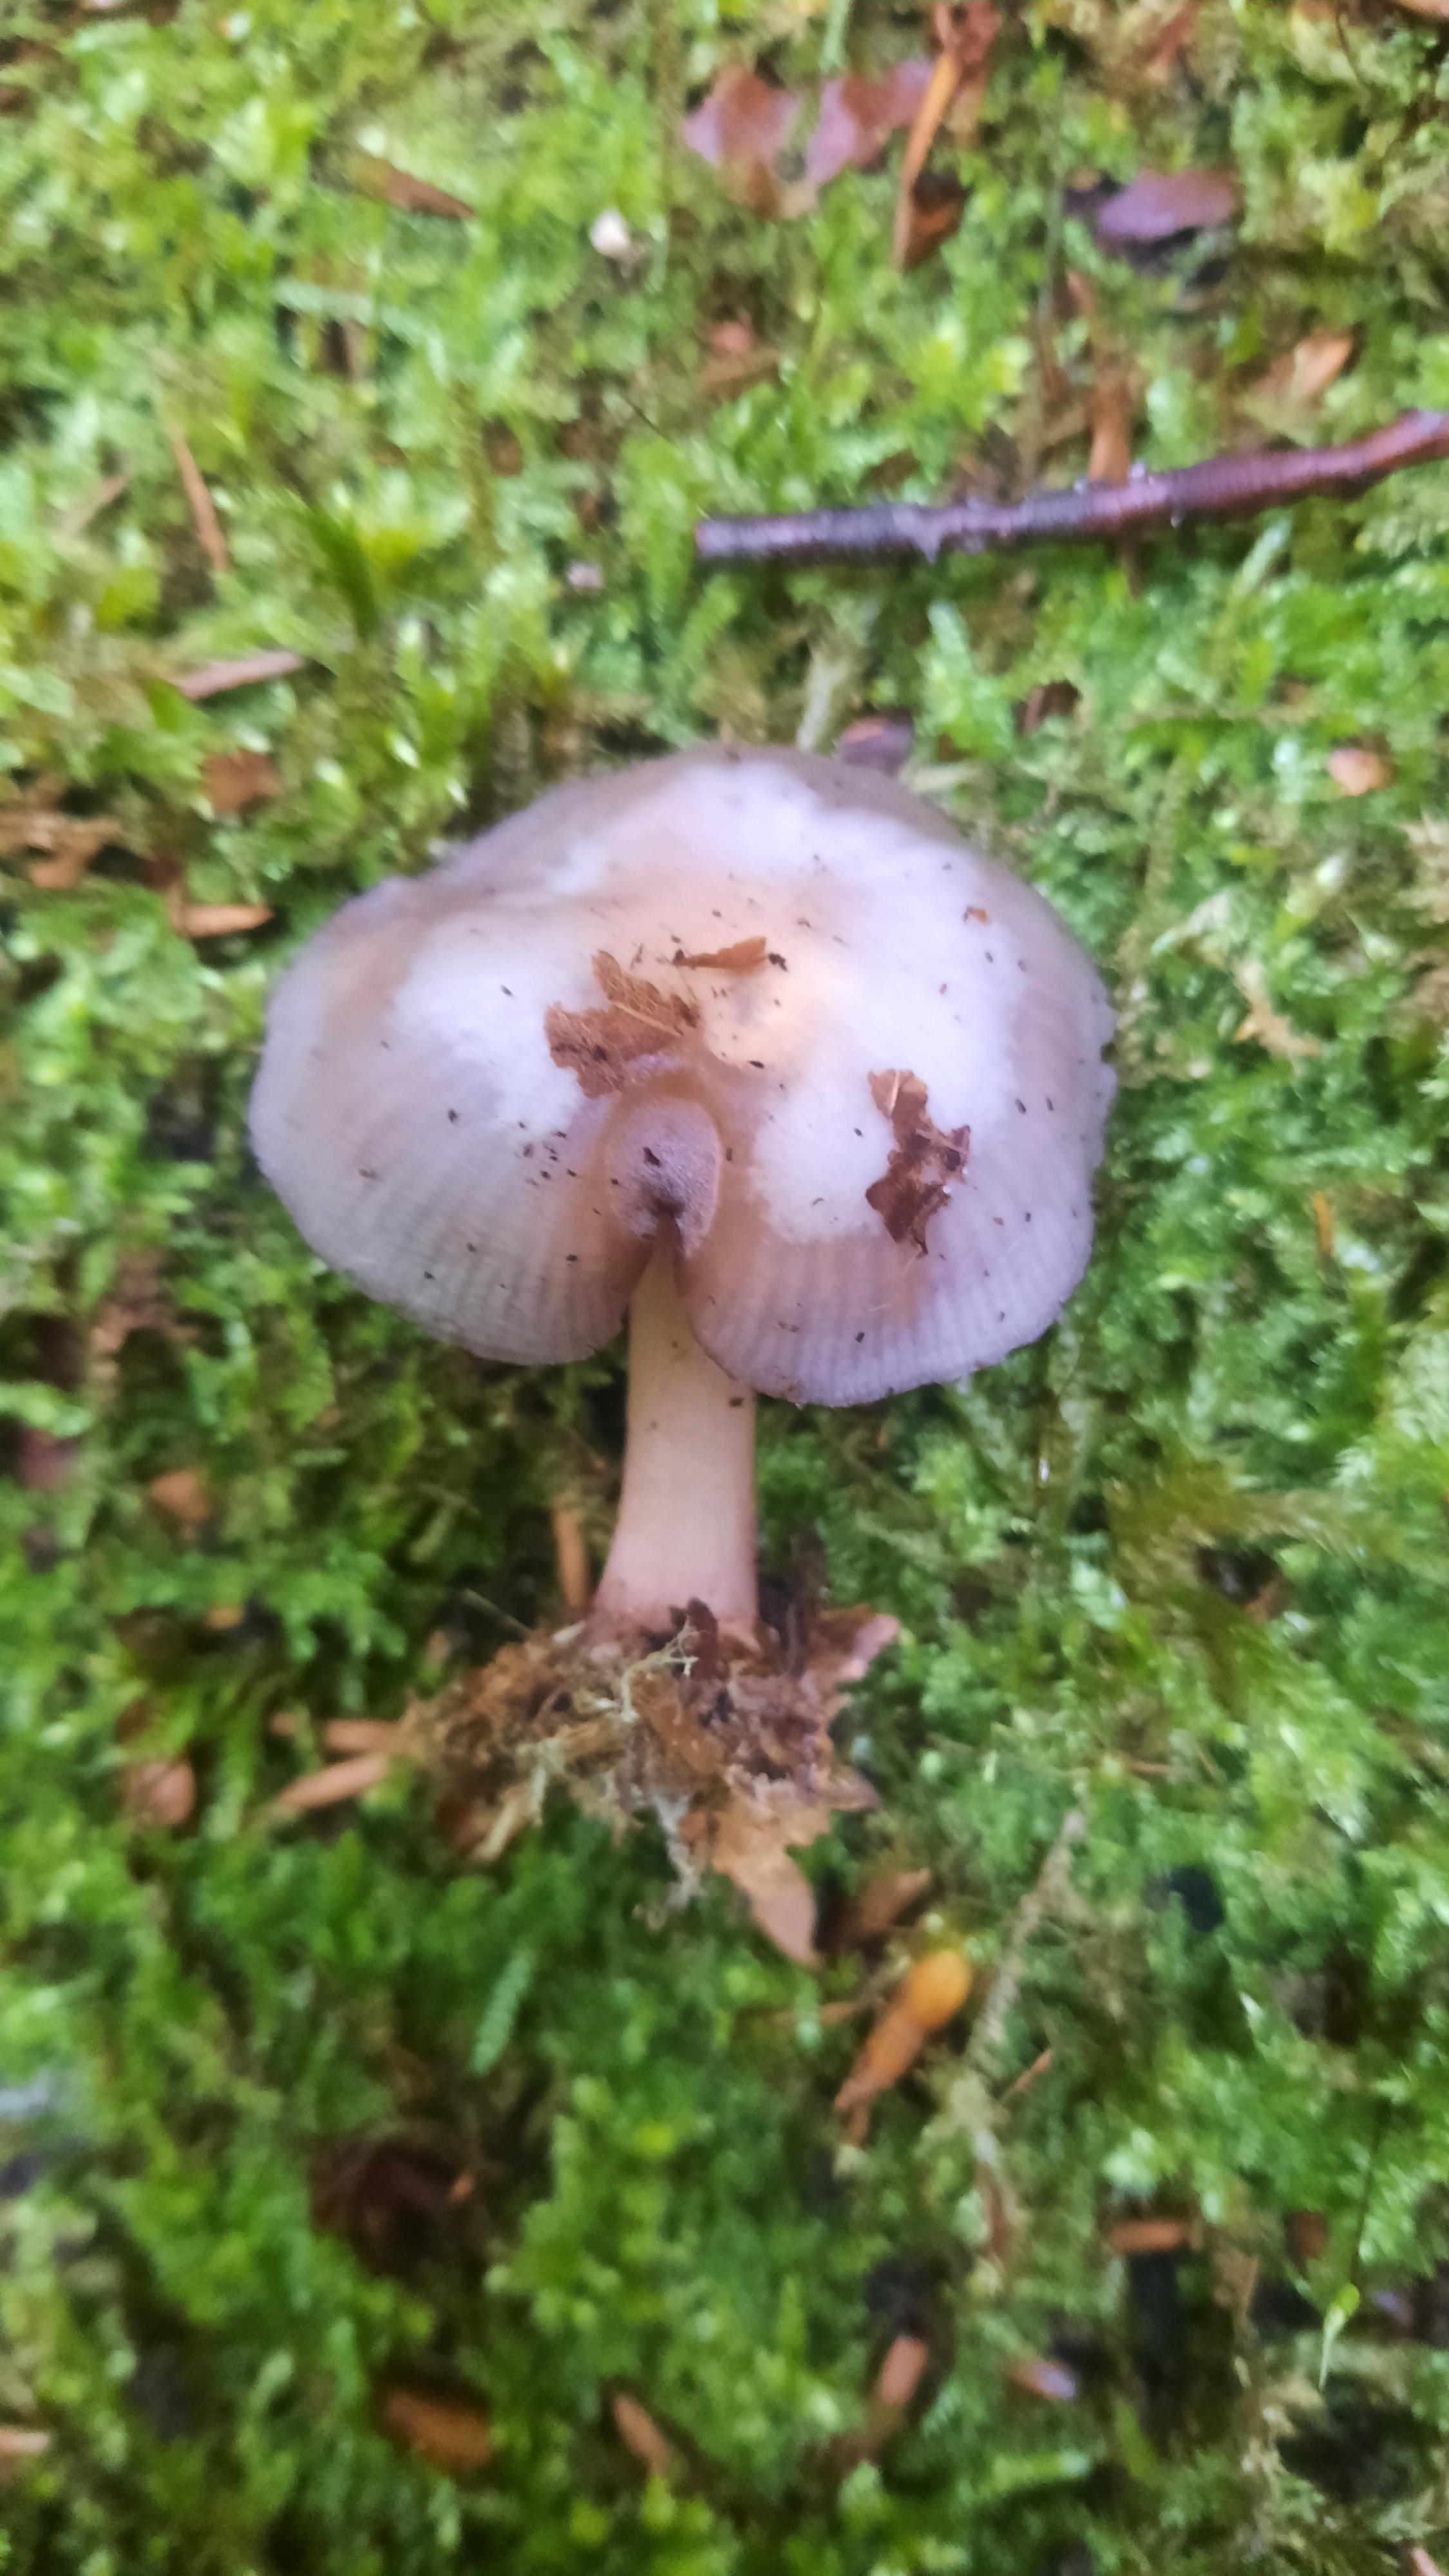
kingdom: Fungi
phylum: Basidiomycota
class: Agaricomycetes
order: Agaricales
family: Mycenaceae
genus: Mycena
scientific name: Mycena pelianthina
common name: mørkbladet huesvamp
